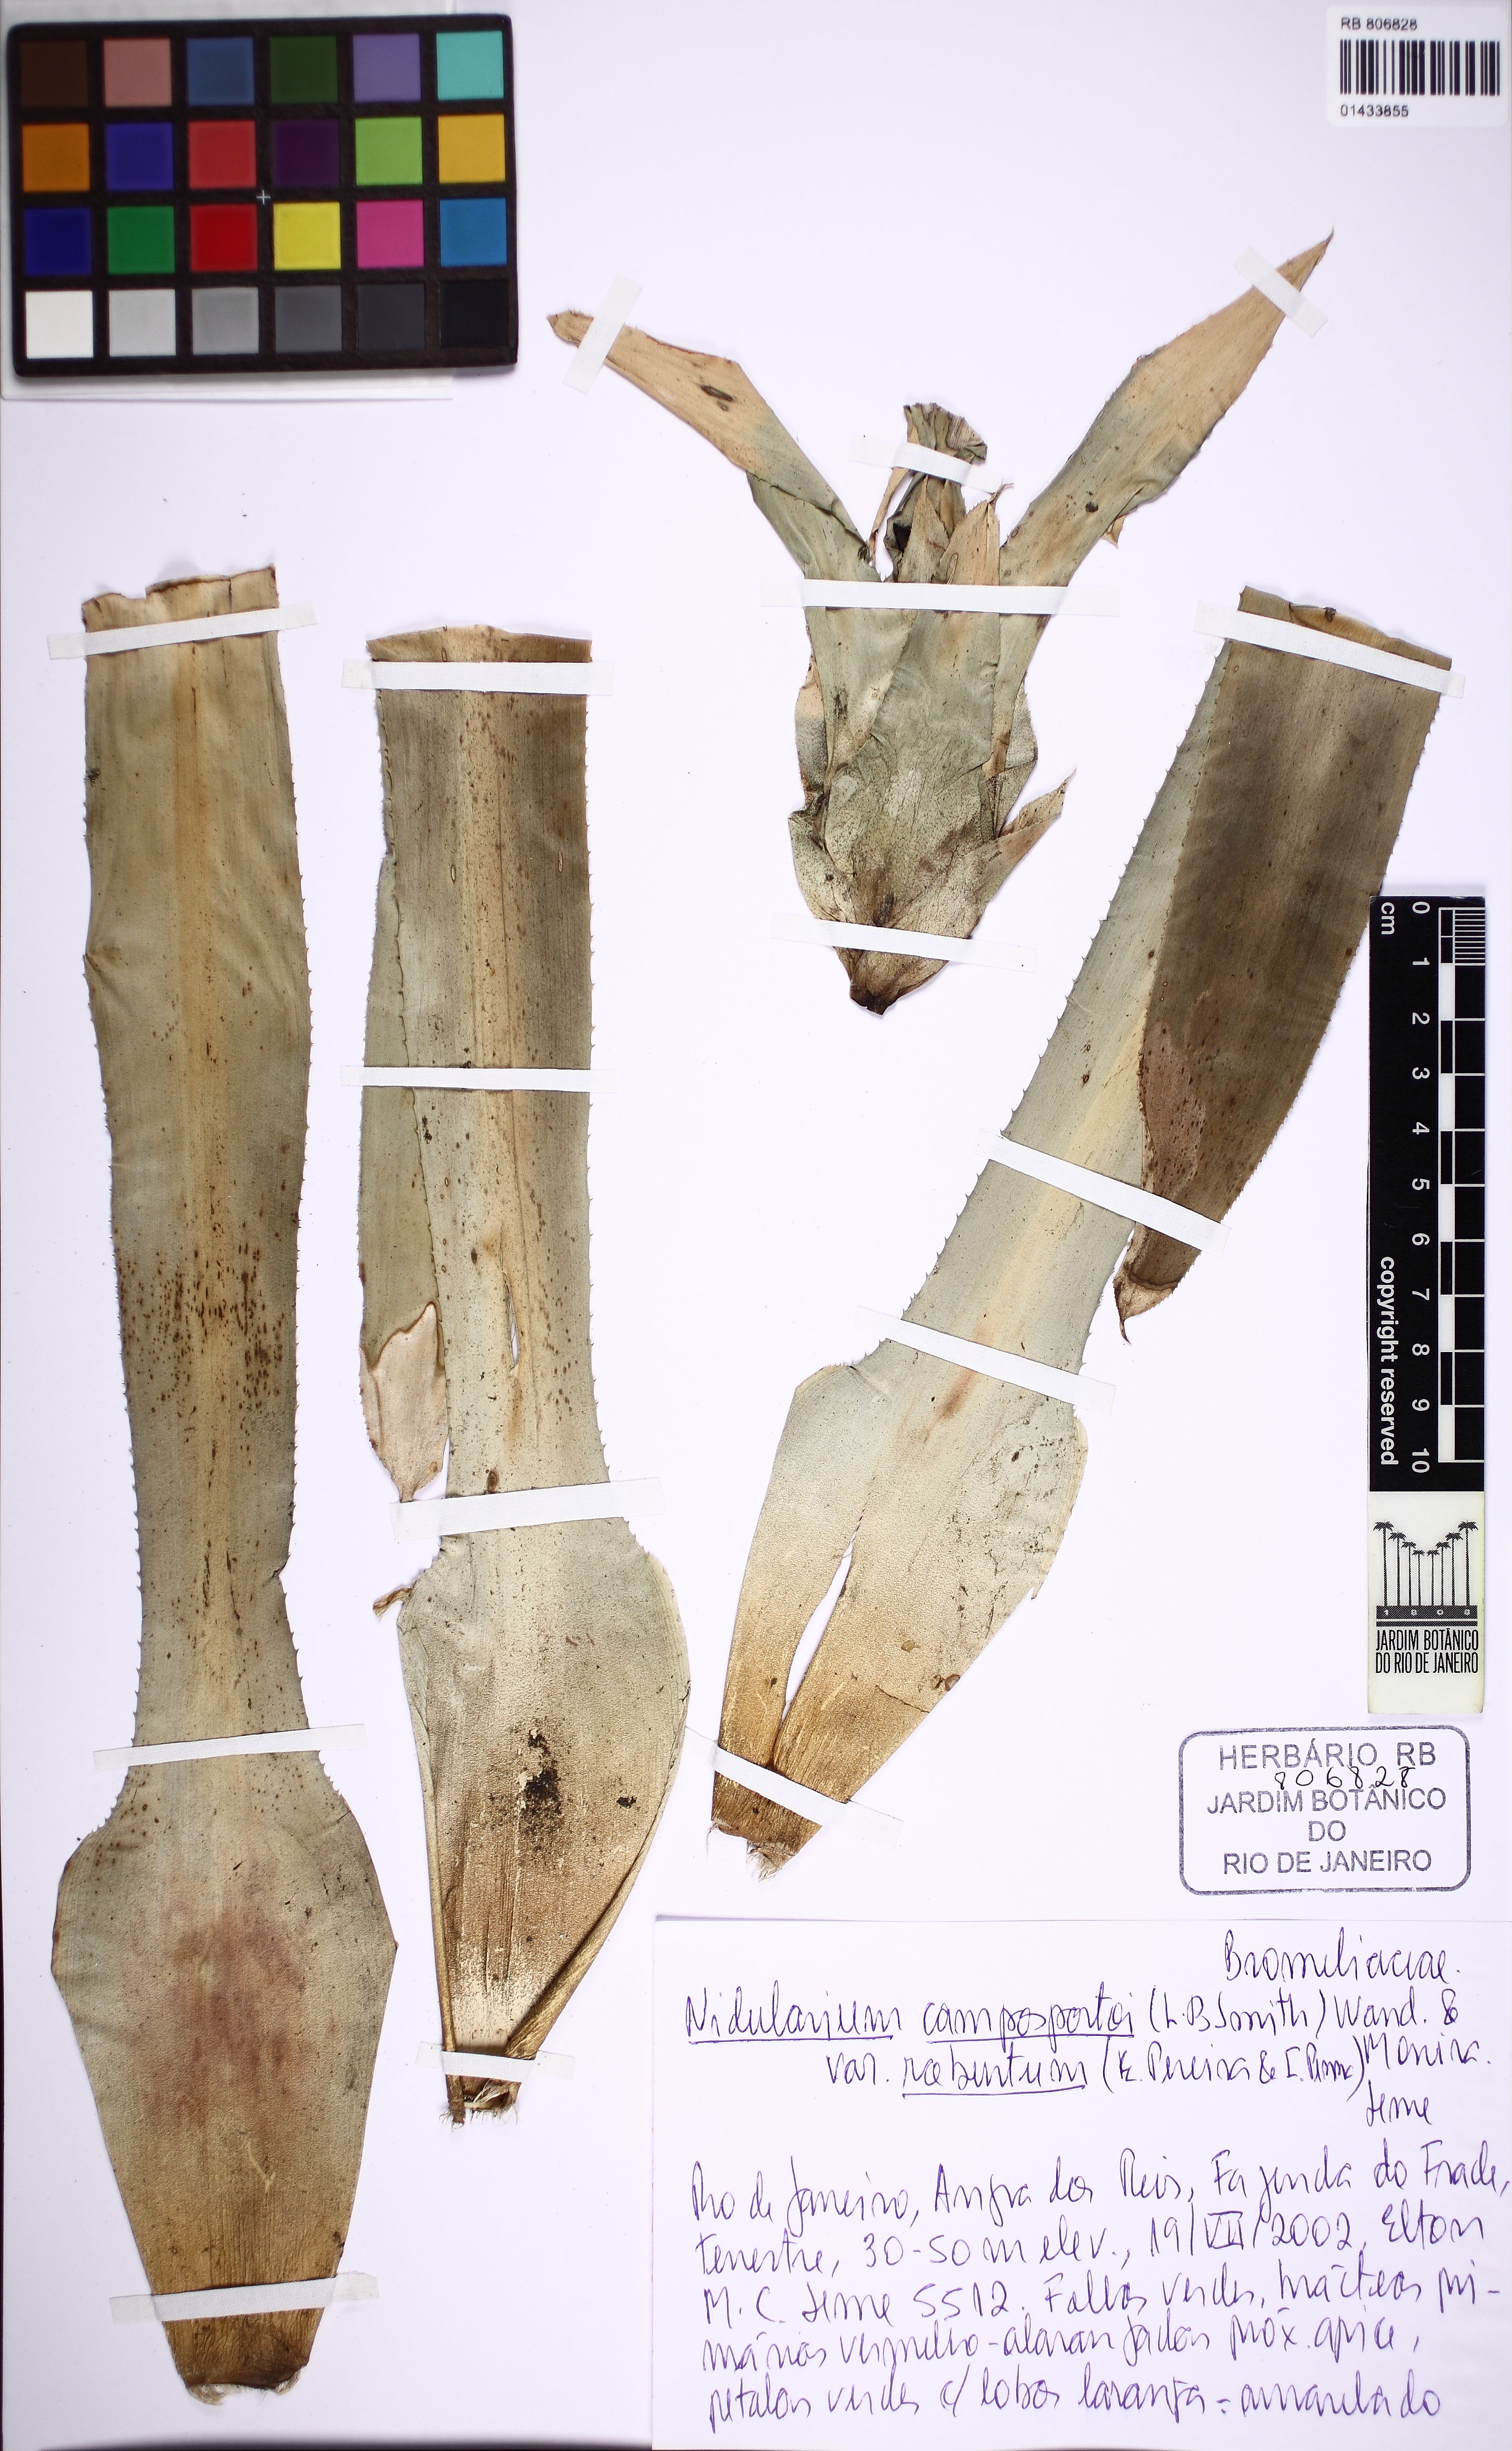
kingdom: Plantae
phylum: Tracheophyta
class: Liliopsida
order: Poales
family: Bromeliaceae
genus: Nidularium
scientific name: Nidularium campos-portoi
